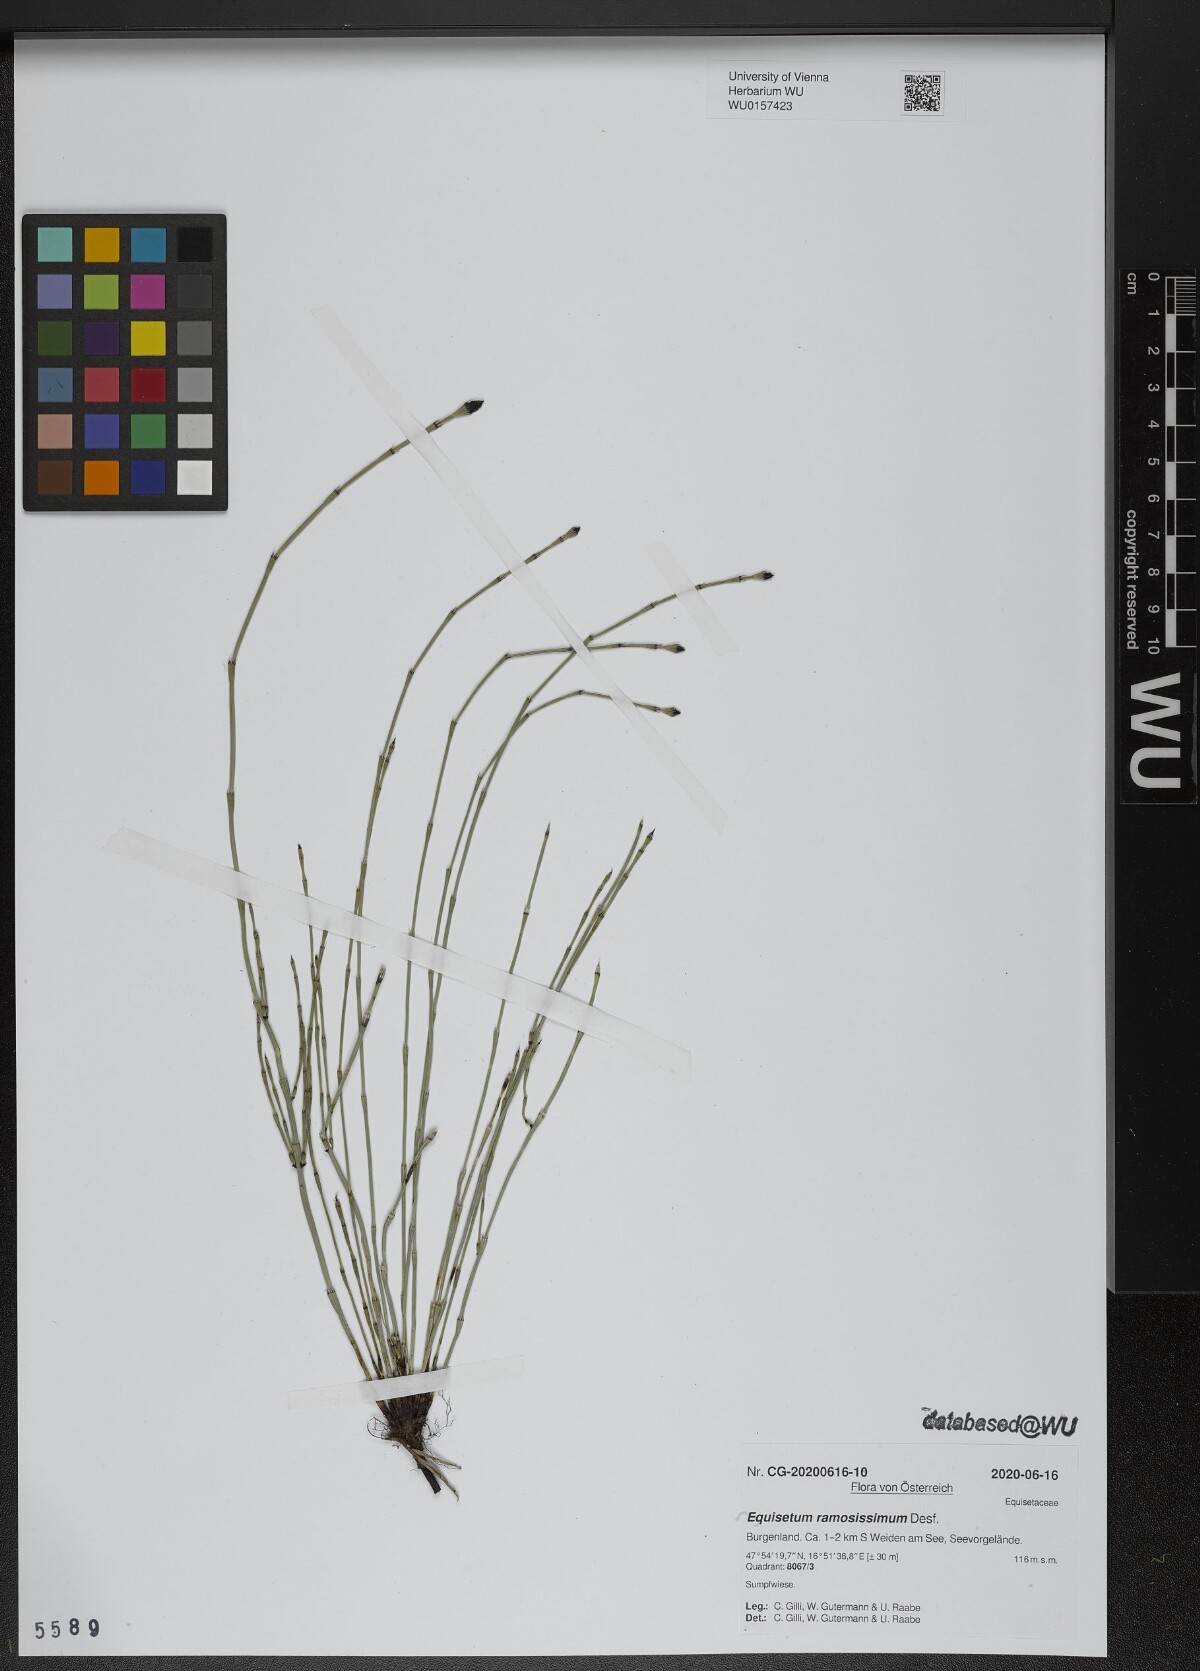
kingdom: Plantae
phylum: Tracheophyta
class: Polypodiopsida
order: Equisetales
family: Equisetaceae
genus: Equisetum
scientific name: Equisetum ramosissimum
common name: Branched horsetail
